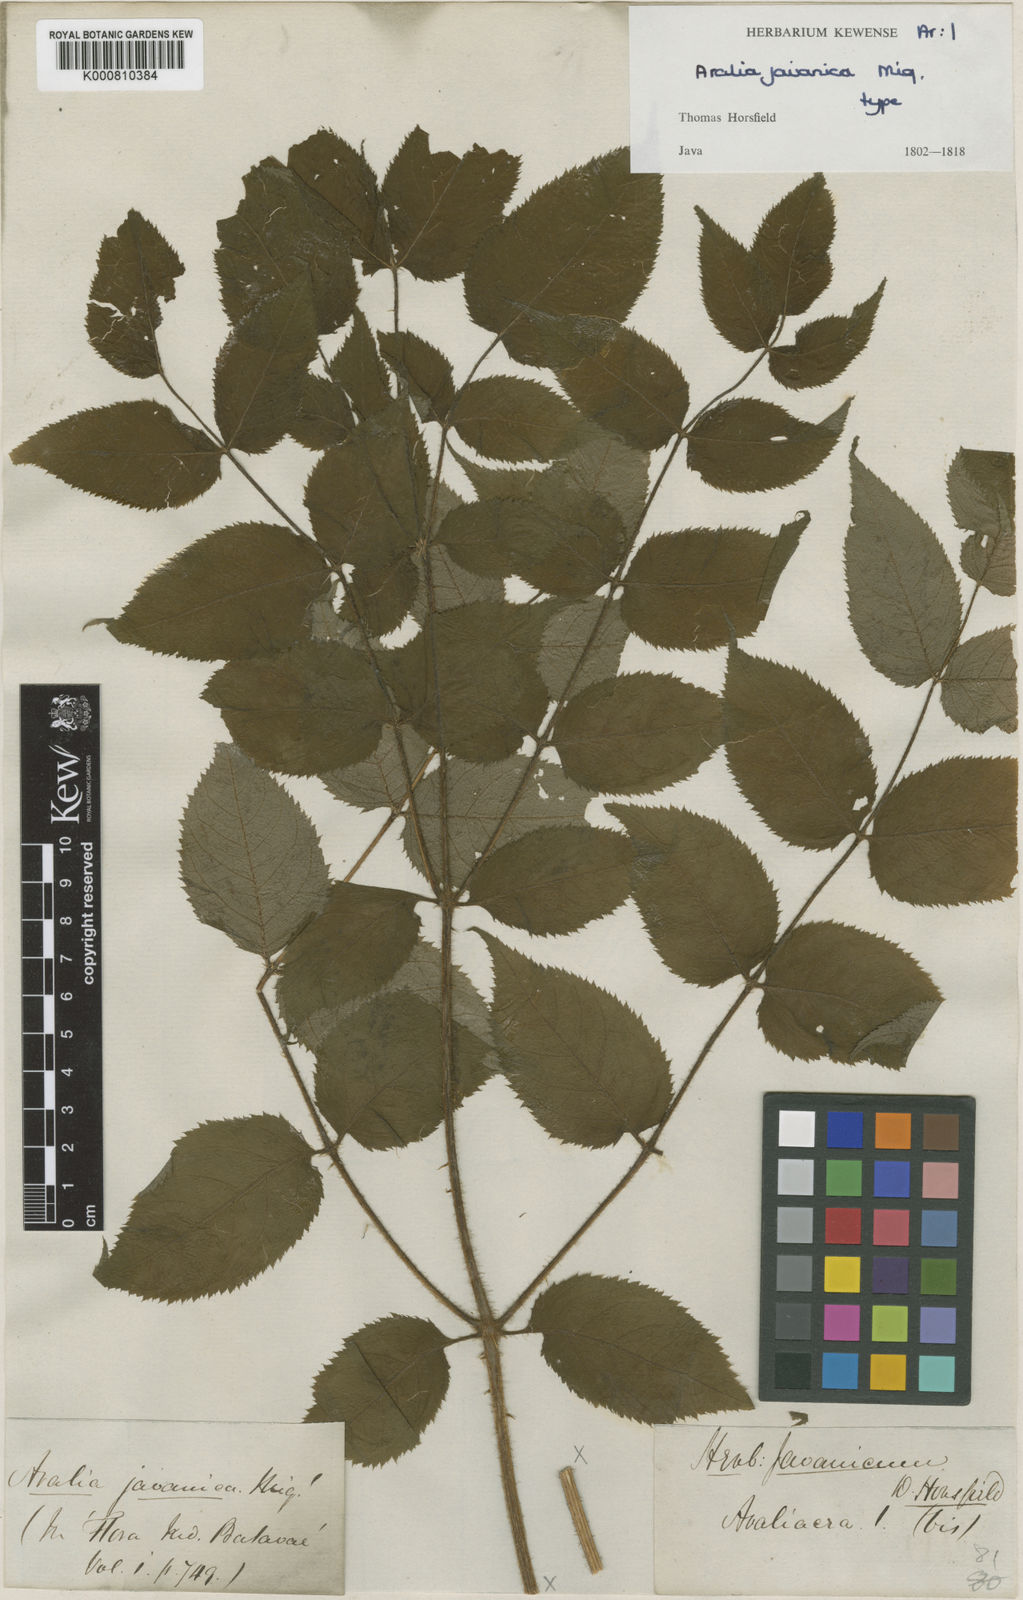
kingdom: Plantae
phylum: Tracheophyta
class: Magnoliopsida
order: Apiales
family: Araliaceae
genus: Aralia
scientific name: Aralia dasyphylla
